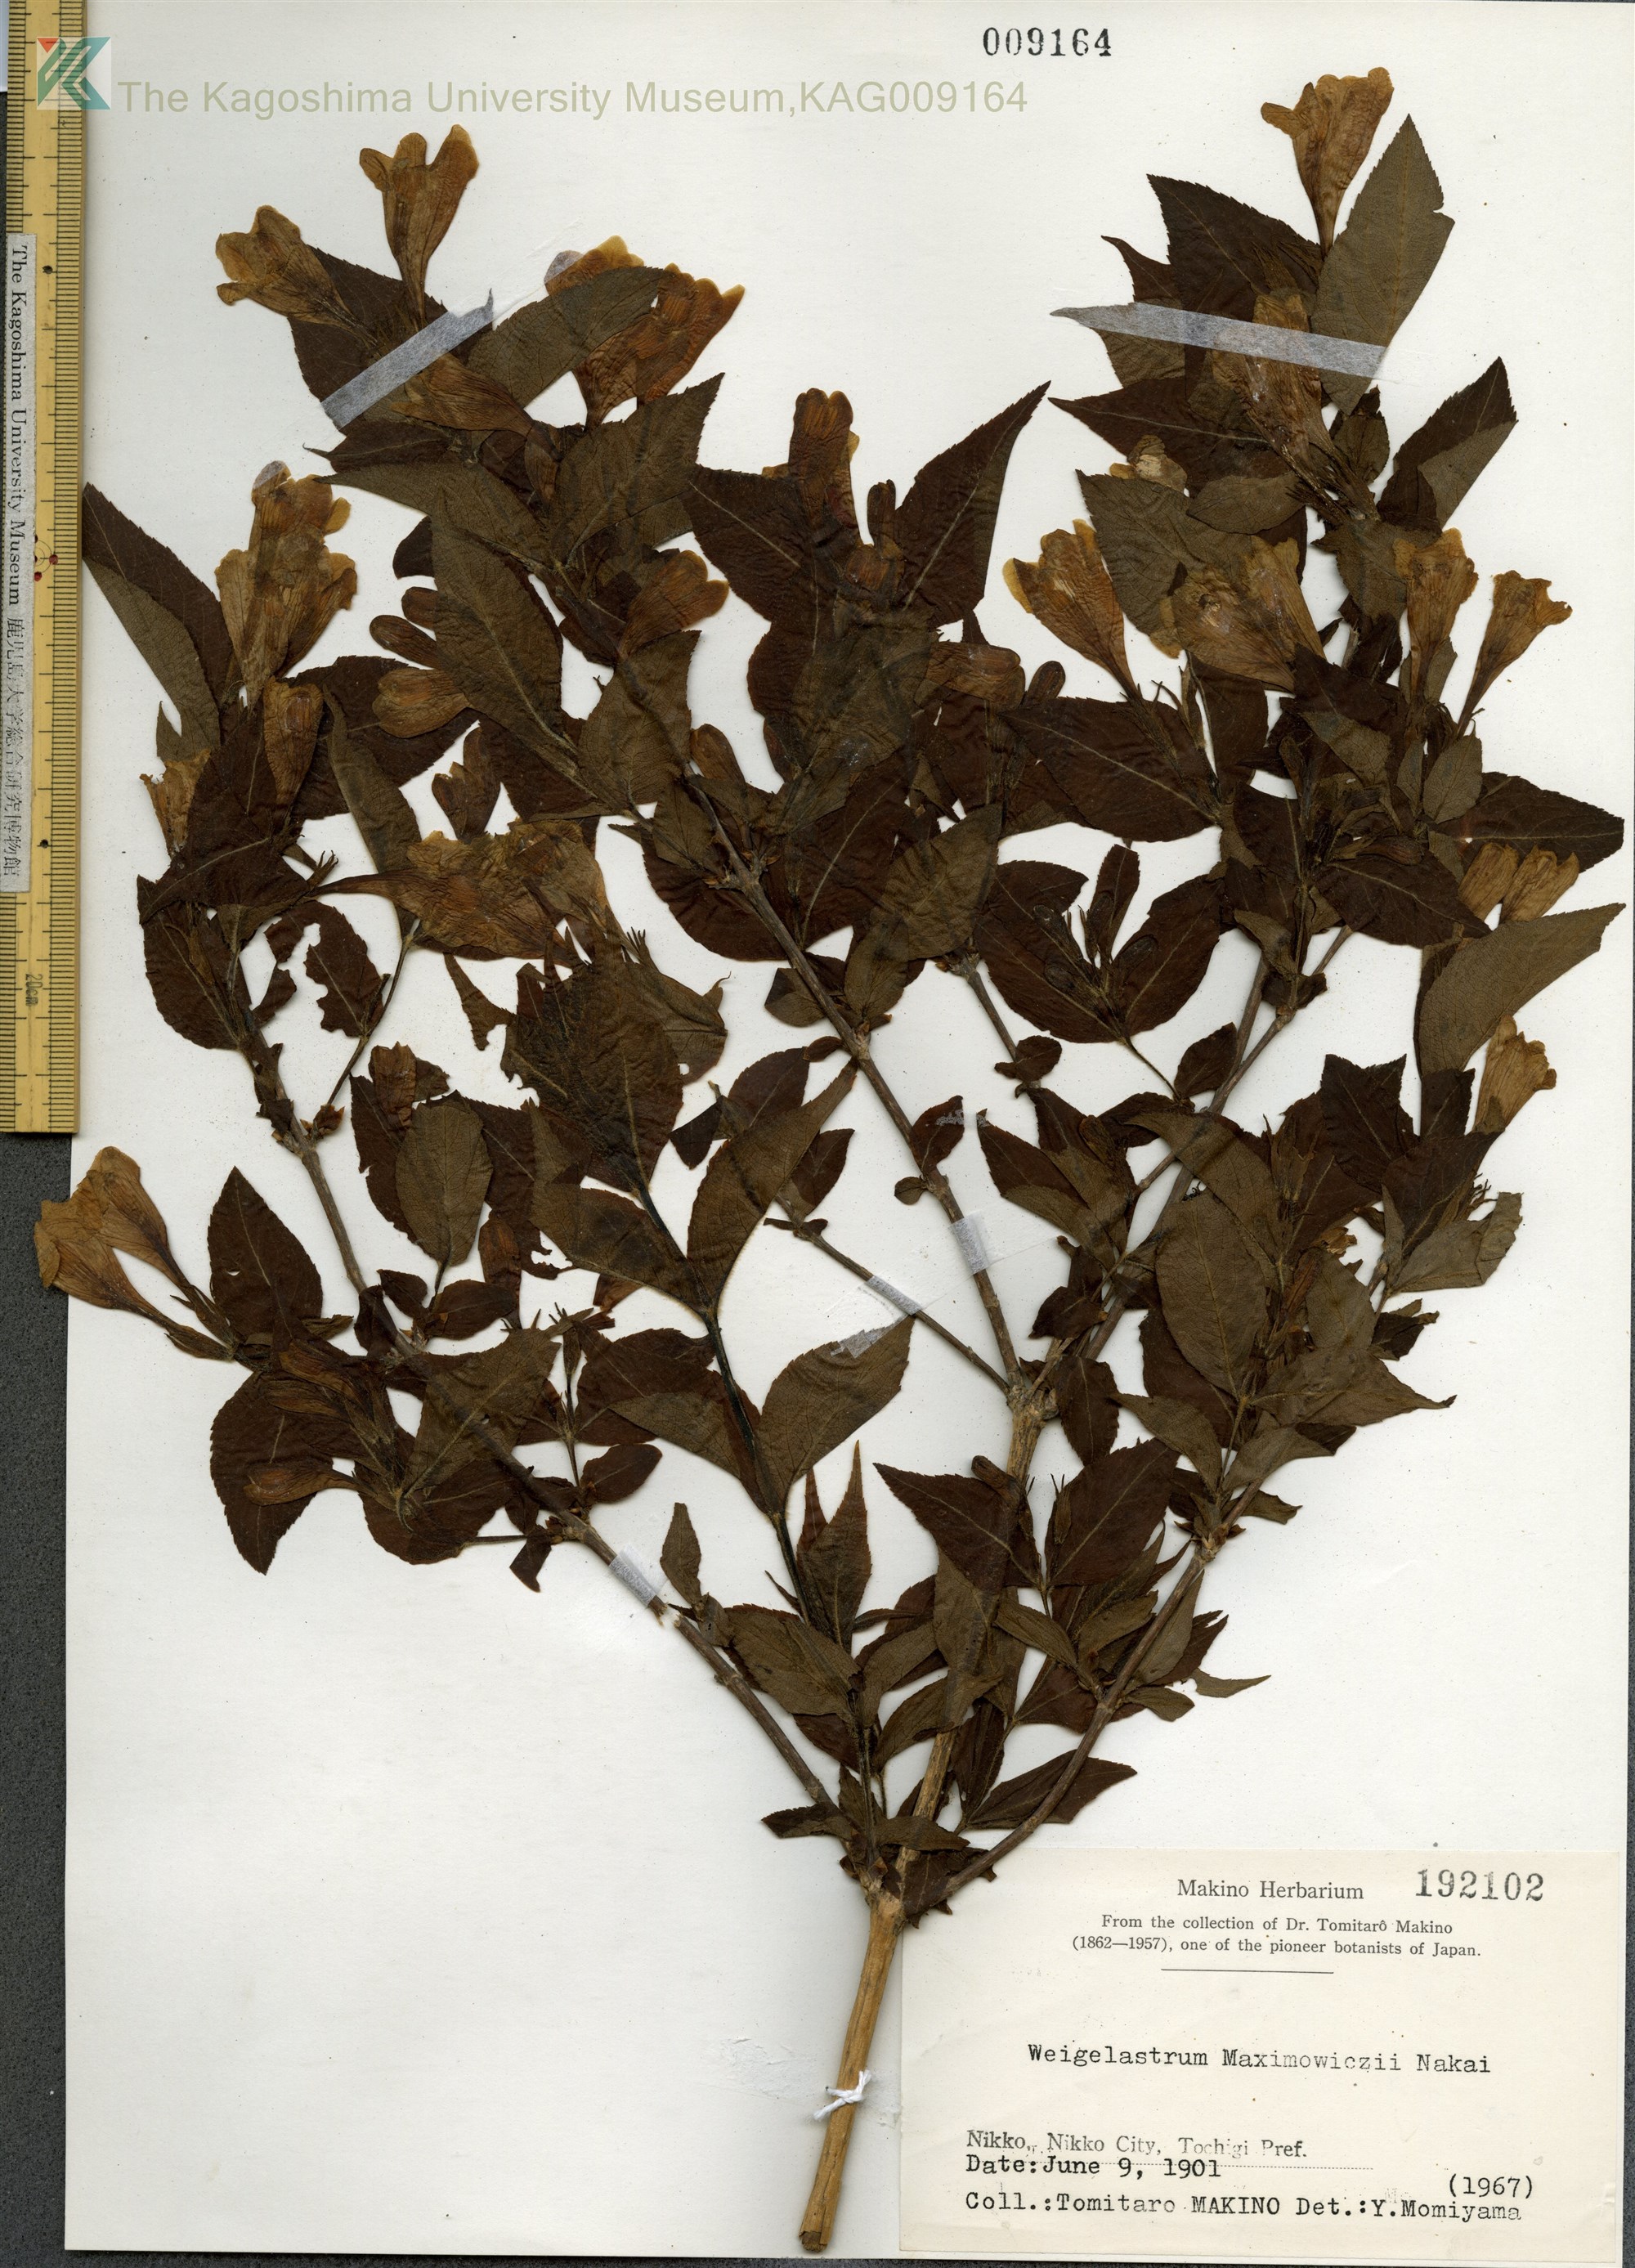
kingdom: Plantae
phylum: Tracheophyta
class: Magnoliopsida
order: Dipsacales
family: Caprifoliaceae
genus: Weigela
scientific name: Weigela maximowiczii
